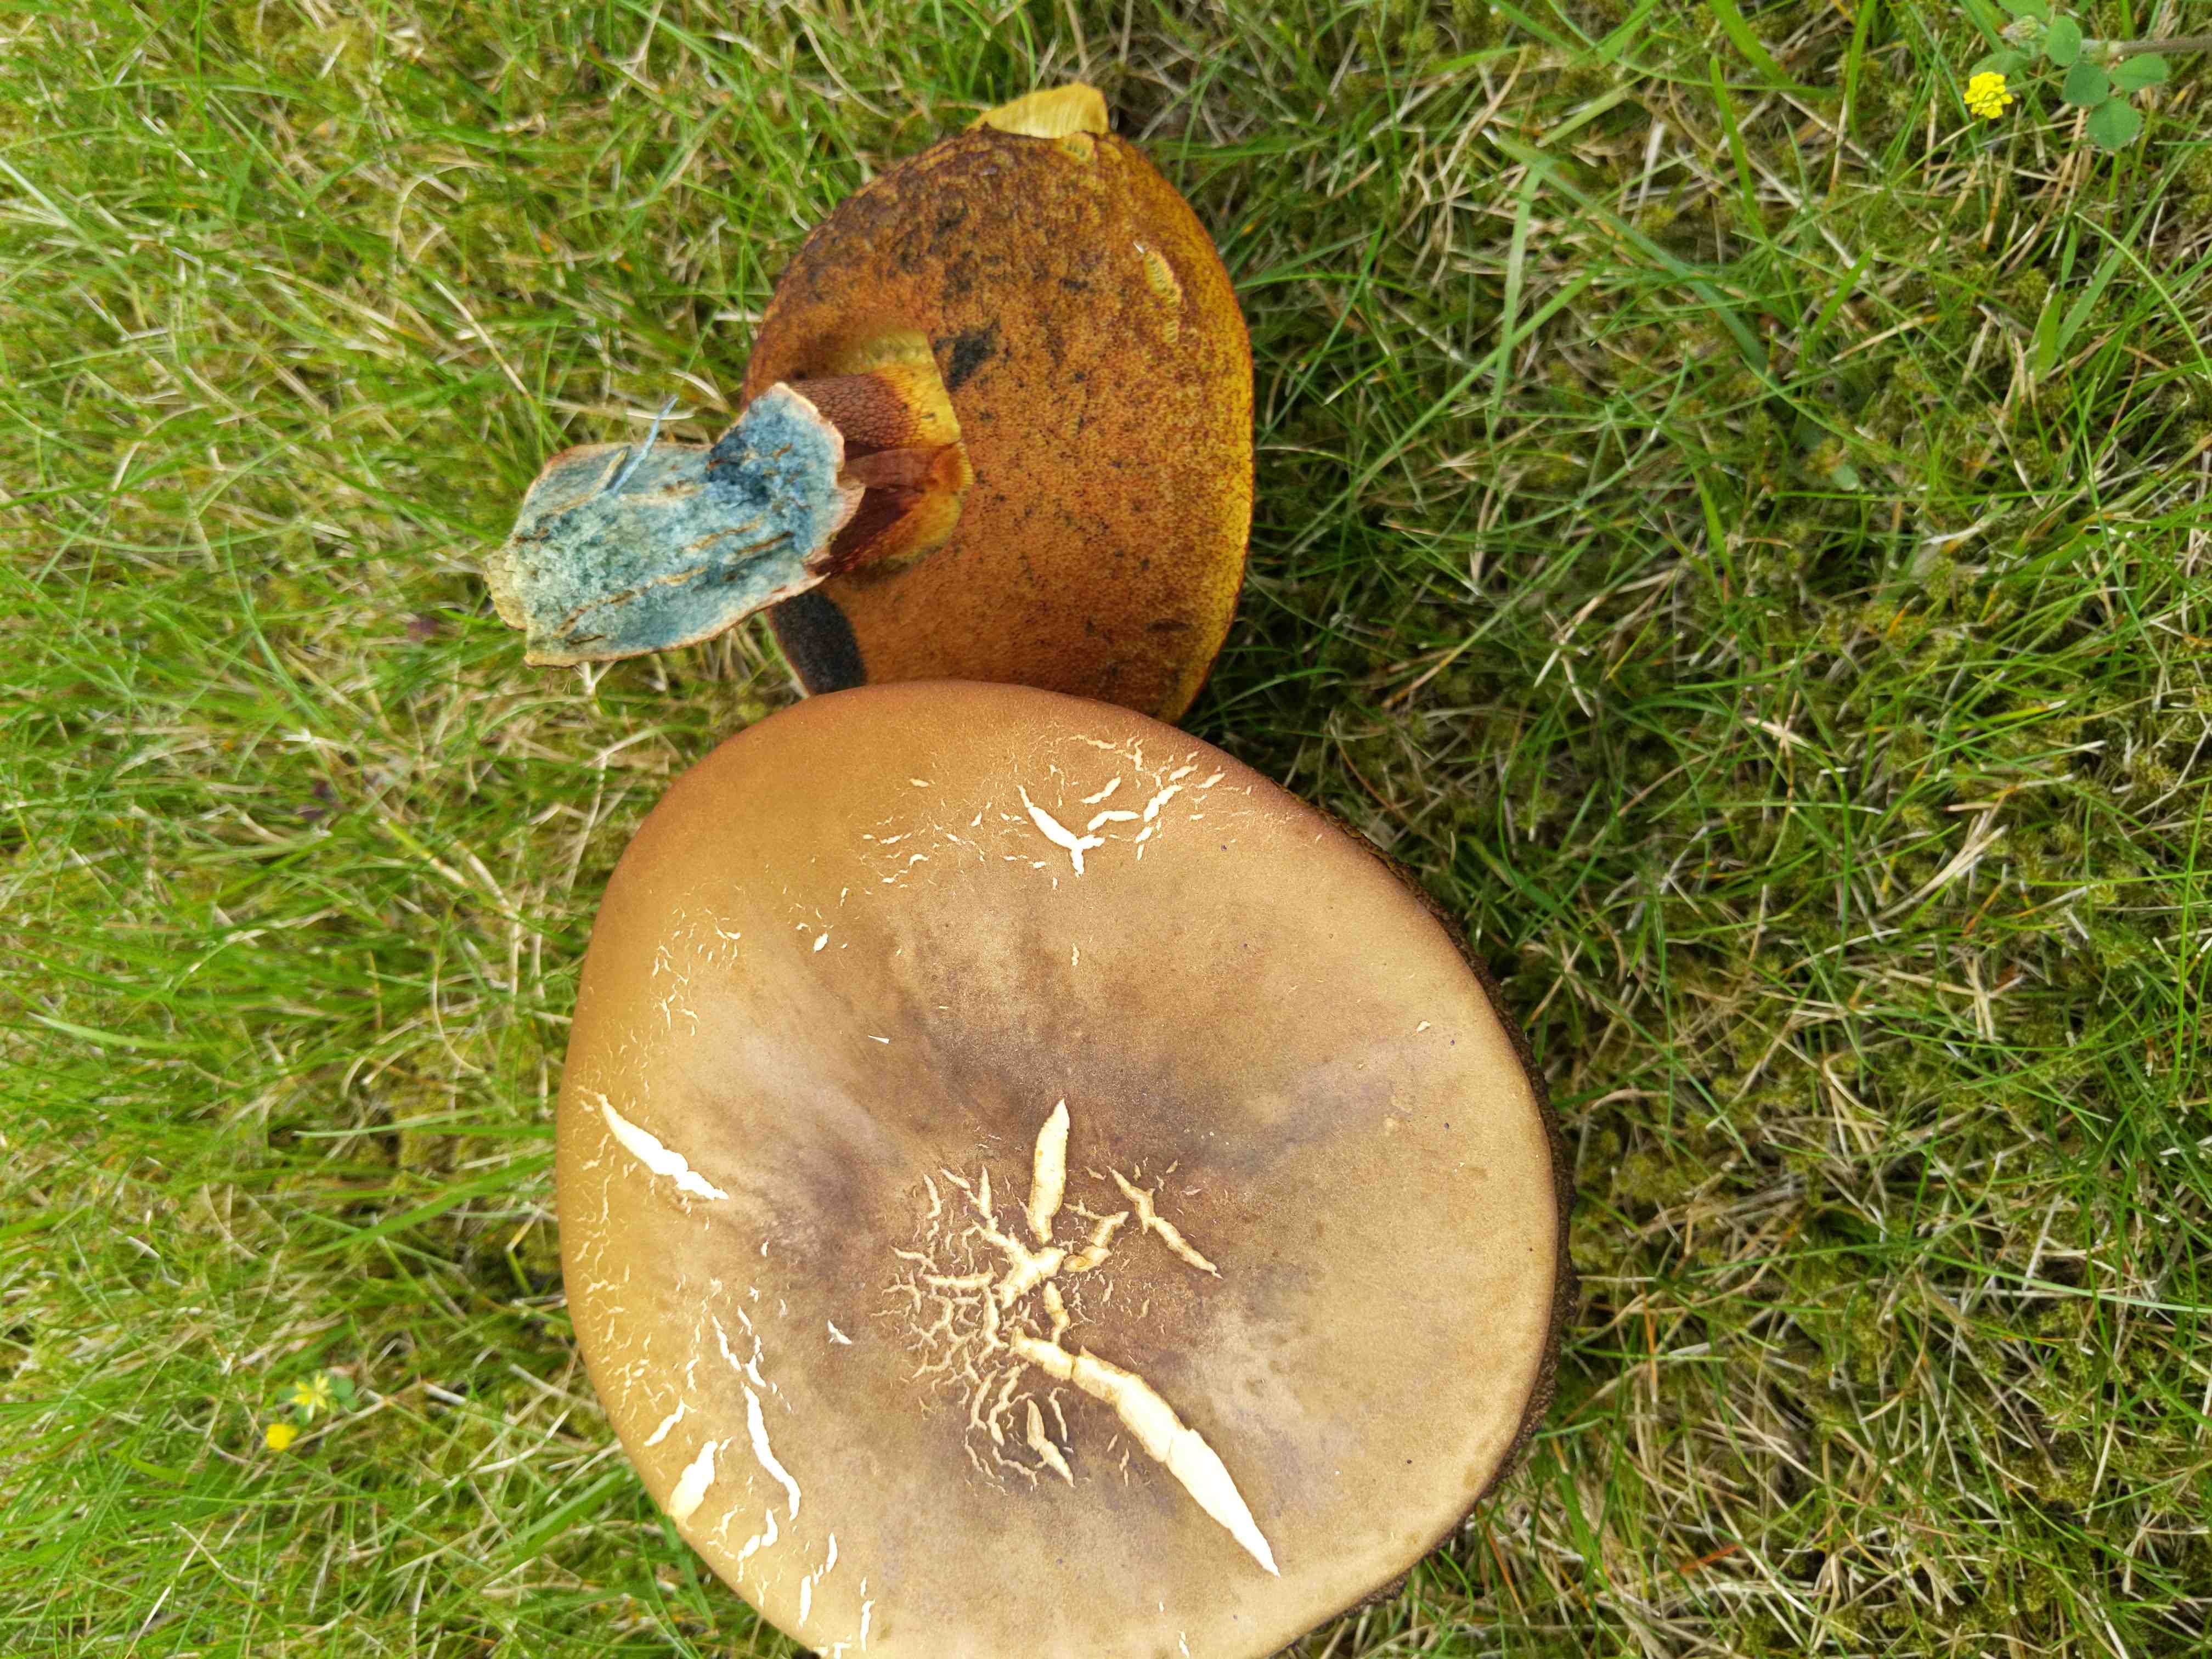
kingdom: Fungi
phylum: Basidiomycota
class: Agaricomycetes
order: Boletales
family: Boletaceae
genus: Neoboletus
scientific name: Neoboletus erythropus
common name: punktstokket indigorørhat
